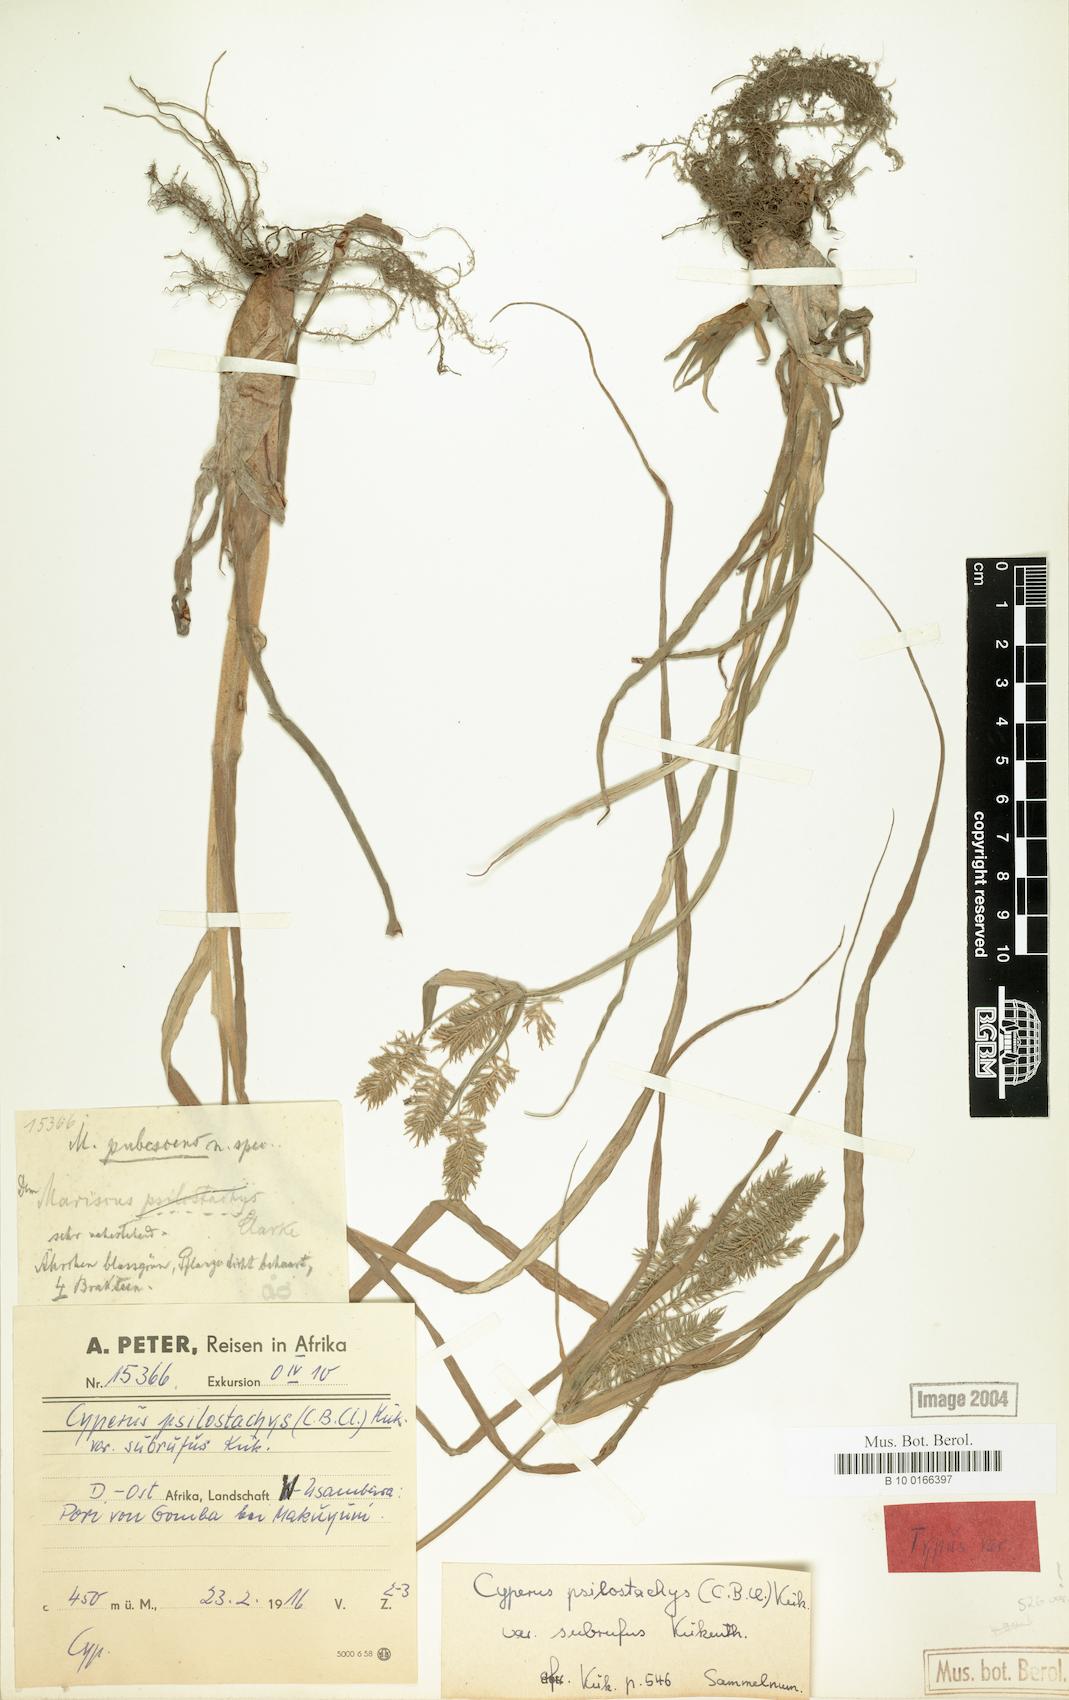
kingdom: Plantae
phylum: Tracheophyta
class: Liliopsida
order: Poales
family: Cyperaceae
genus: Cyperus
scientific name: Cyperus trigonellus
